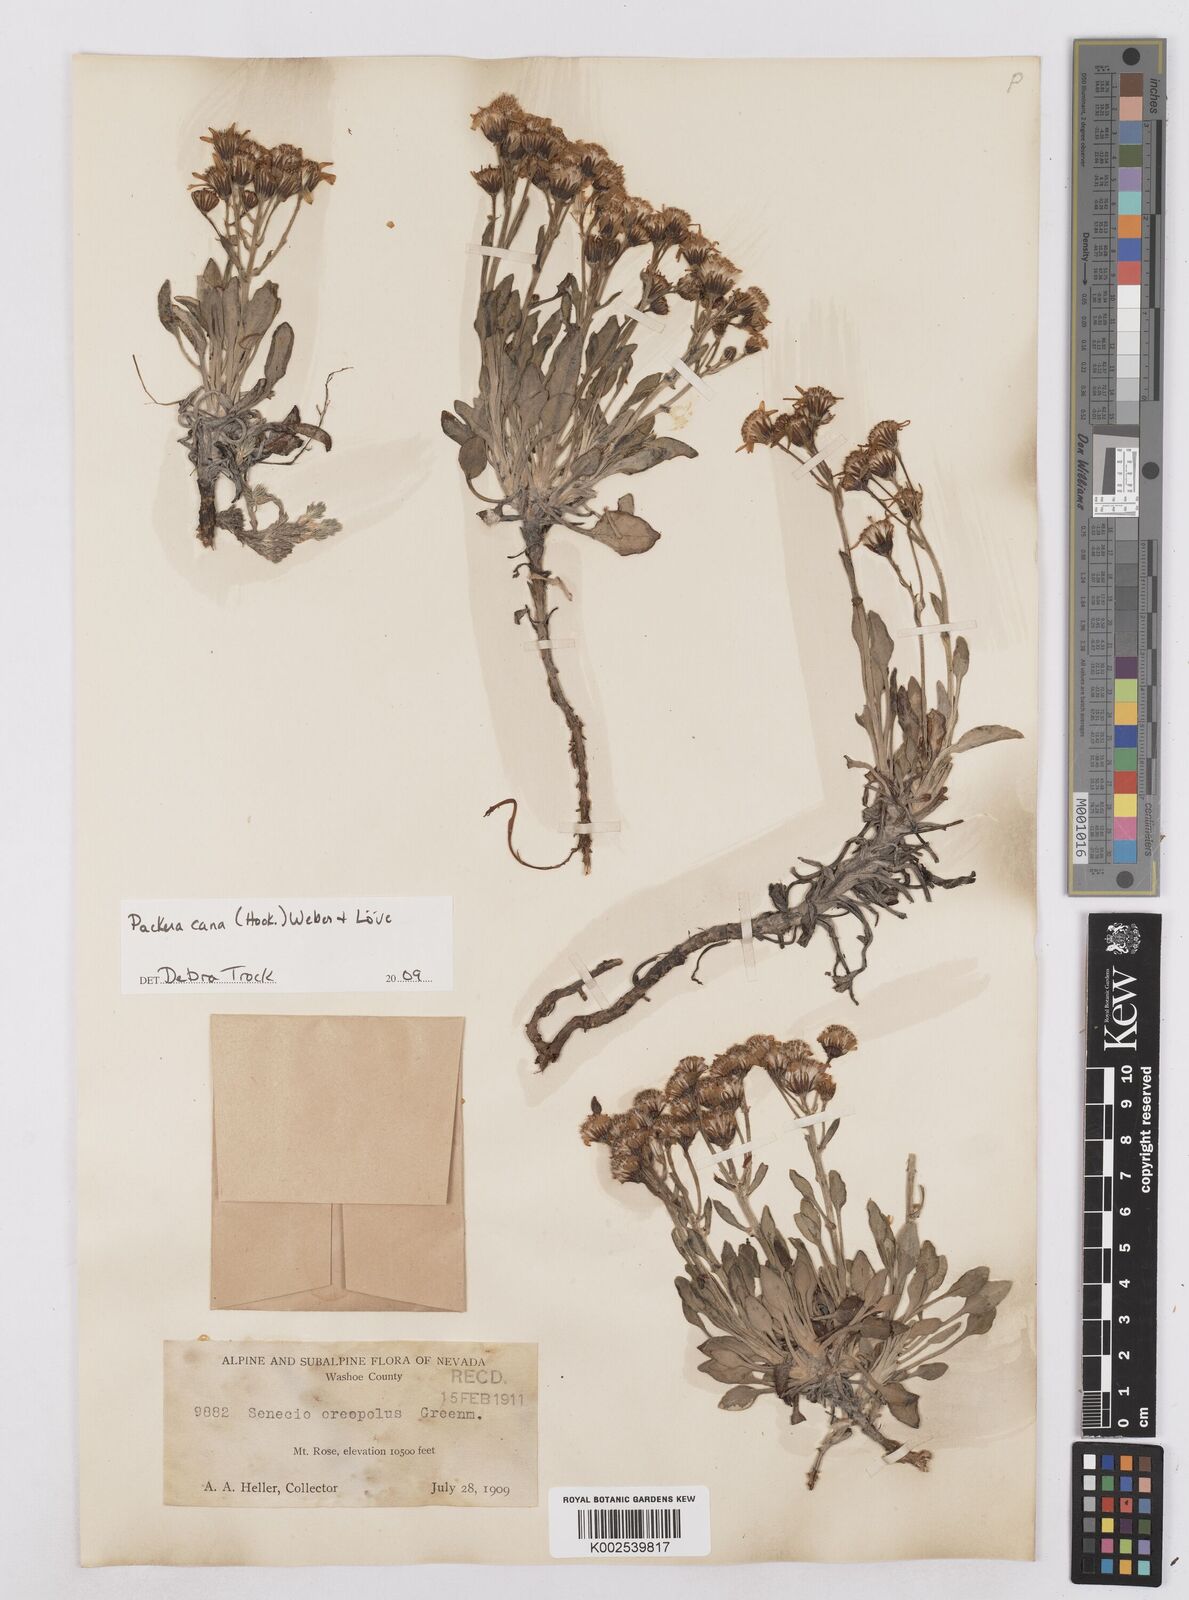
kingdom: Plantae
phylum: Tracheophyta
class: Magnoliopsida
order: Asterales
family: Asteraceae
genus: Packera
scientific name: Packera cana
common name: Woolly groundsel
